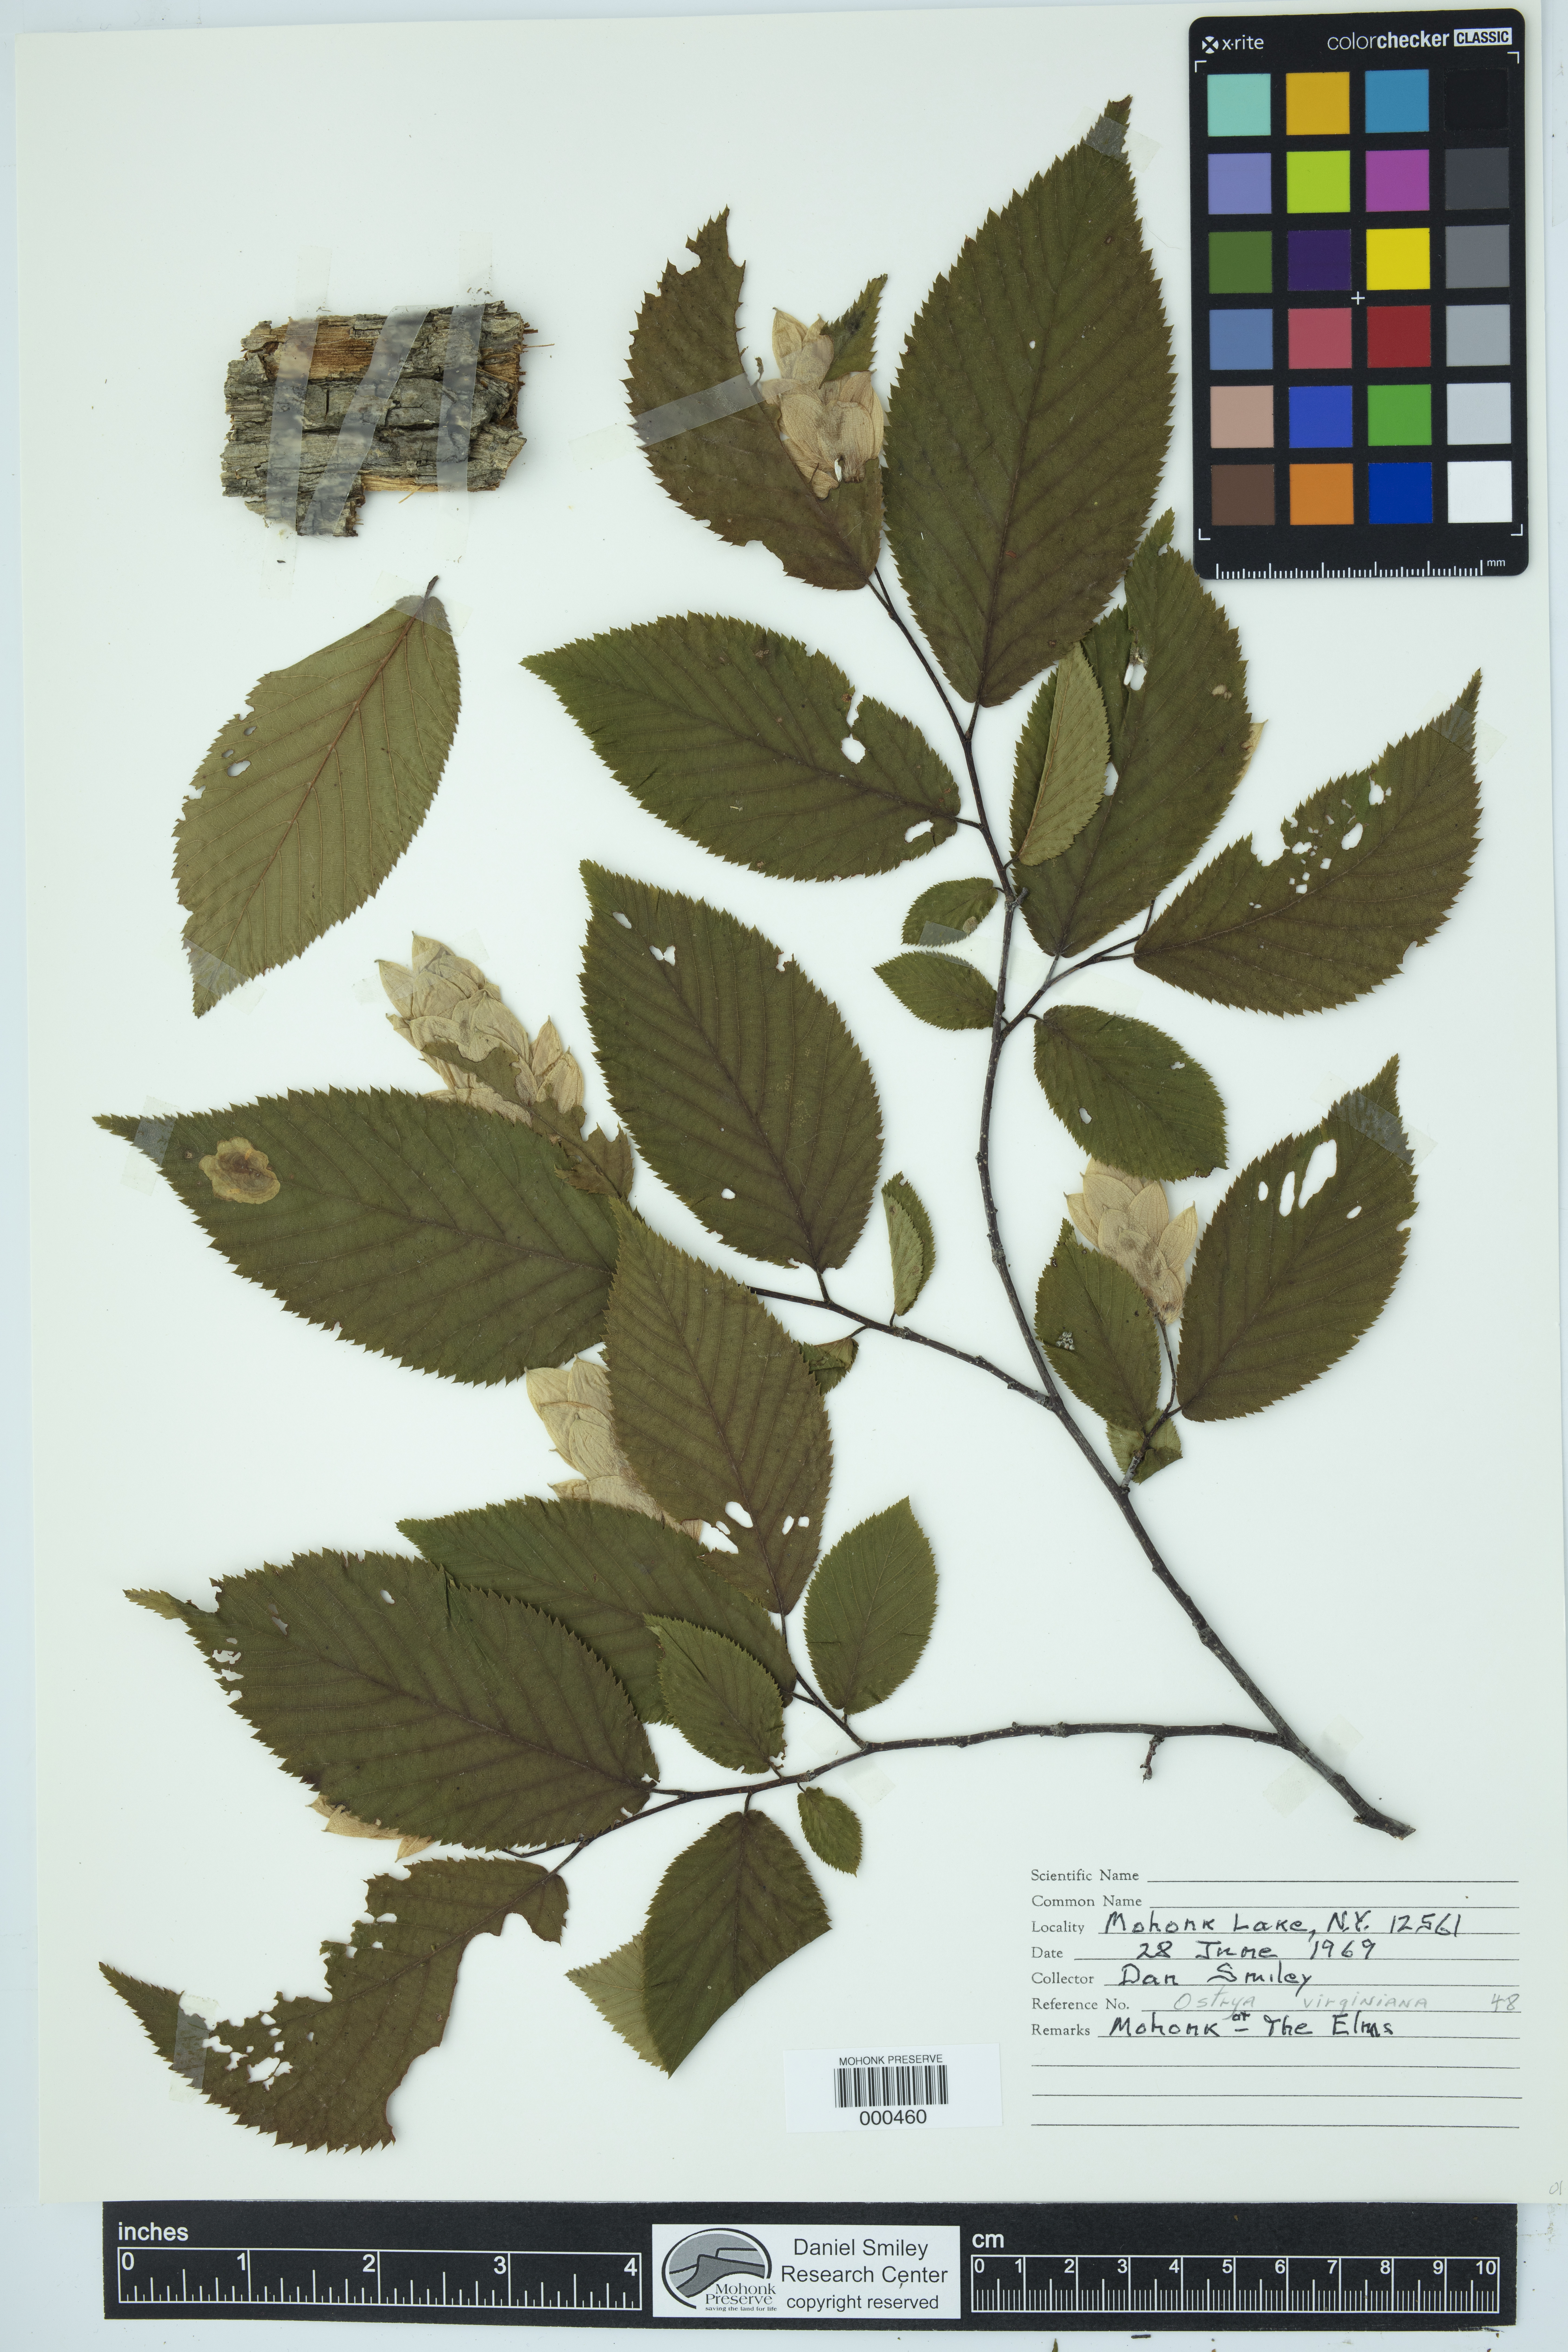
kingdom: Plantae
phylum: Tracheophyta
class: Magnoliopsida
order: Fagales
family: Betulaceae
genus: Ostrya
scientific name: Ostrya virginiana
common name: Ironwood
